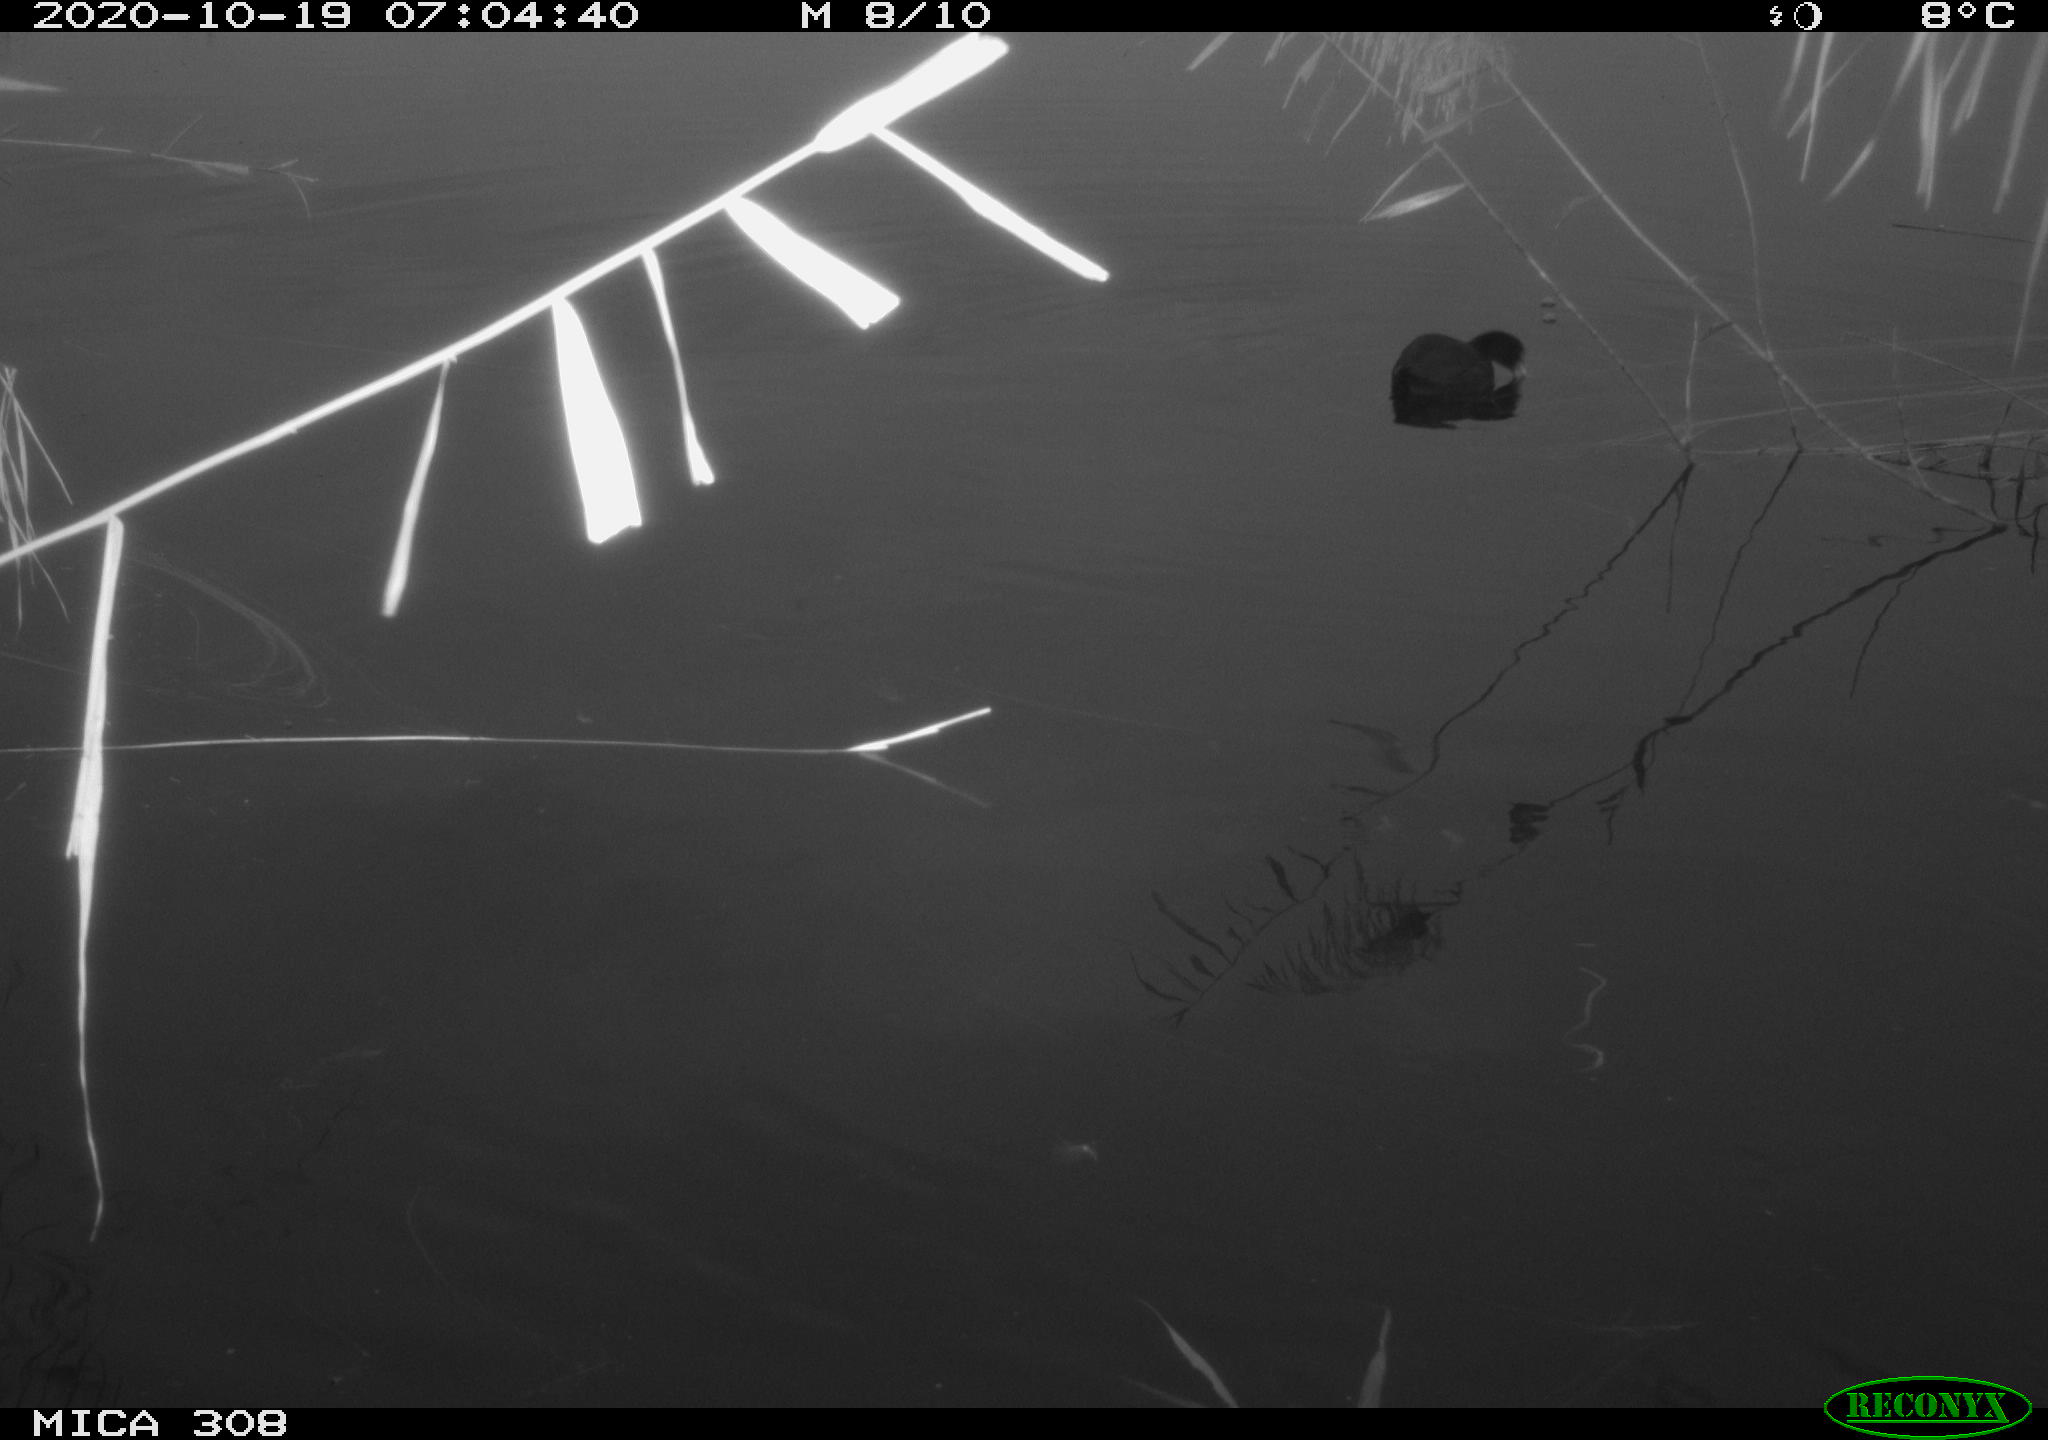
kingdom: Animalia
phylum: Chordata
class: Aves
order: Gruiformes
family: Rallidae
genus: Gallinula
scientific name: Gallinula chloropus
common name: Common moorhen
